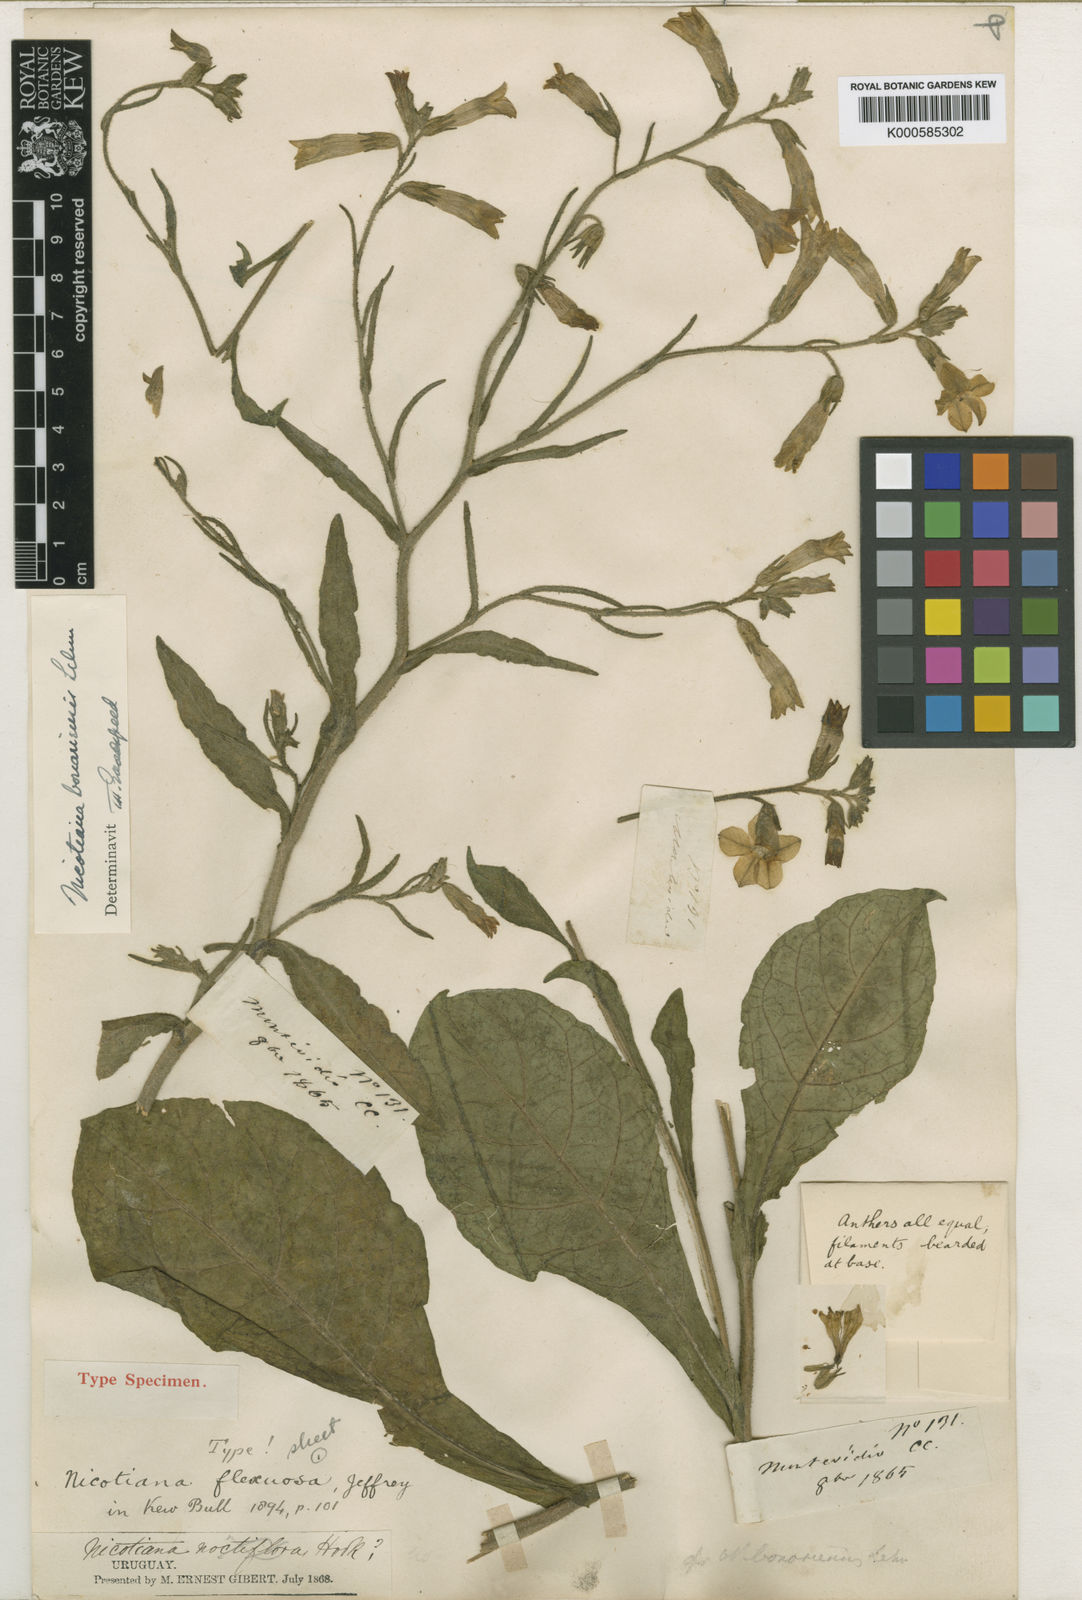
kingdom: Plantae
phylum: Tracheophyta
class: Magnoliopsida
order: Solanales
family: Solanaceae
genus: Nicotiana
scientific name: Nicotiana bonariensis
